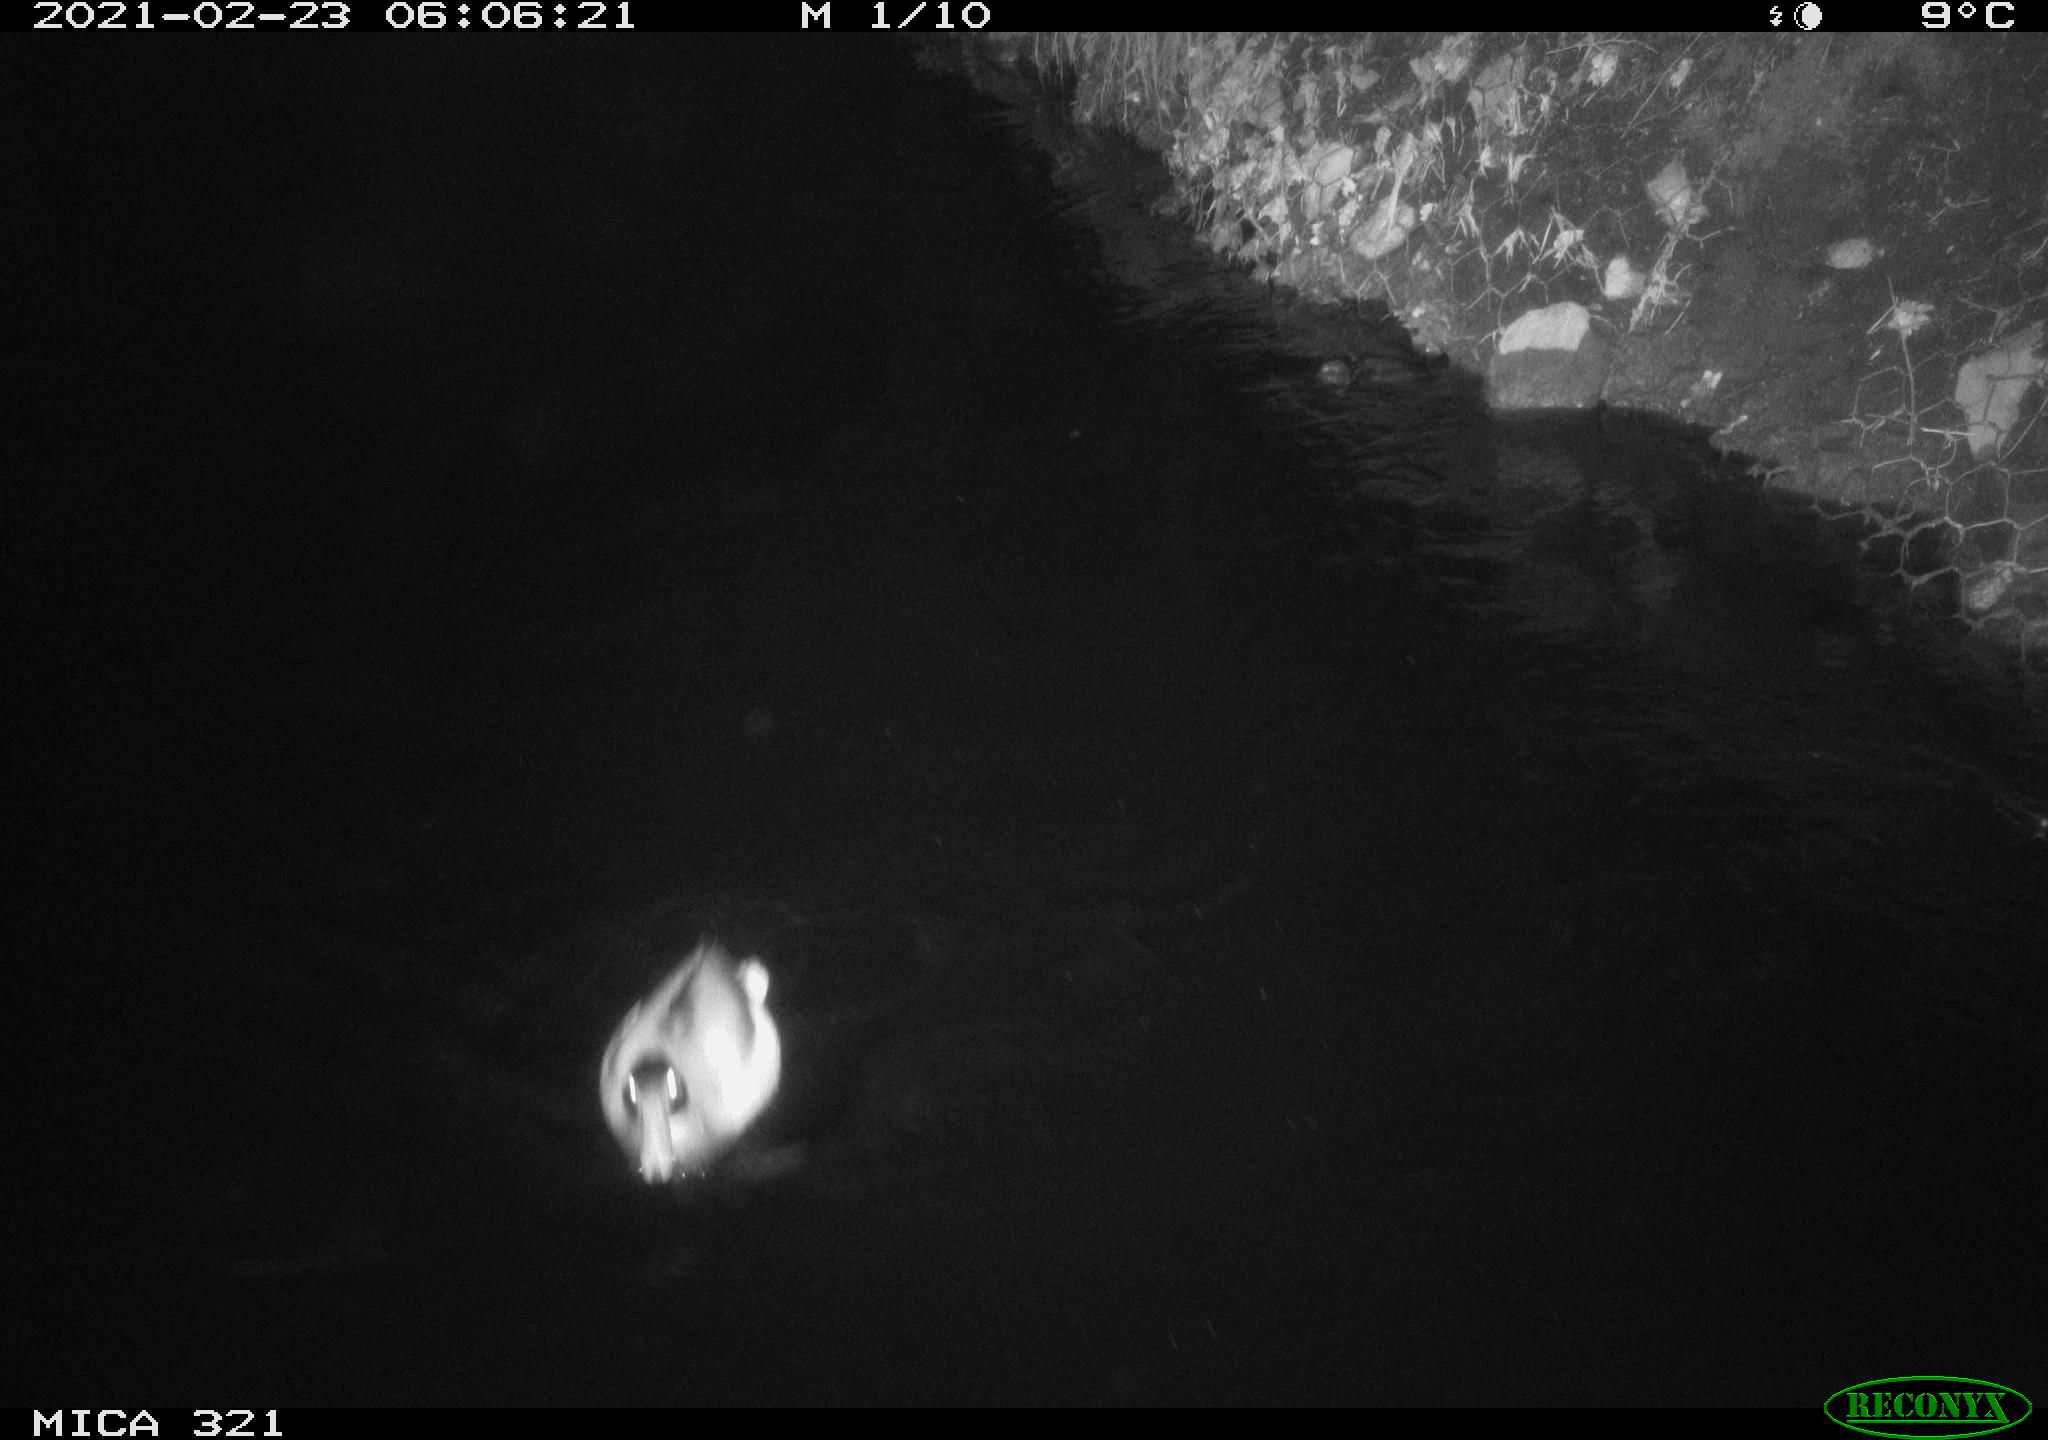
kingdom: Animalia
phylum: Chordata
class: Aves
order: Anseriformes
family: Anatidae
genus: Anas
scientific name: Anas platyrhynchos
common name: Mallard
